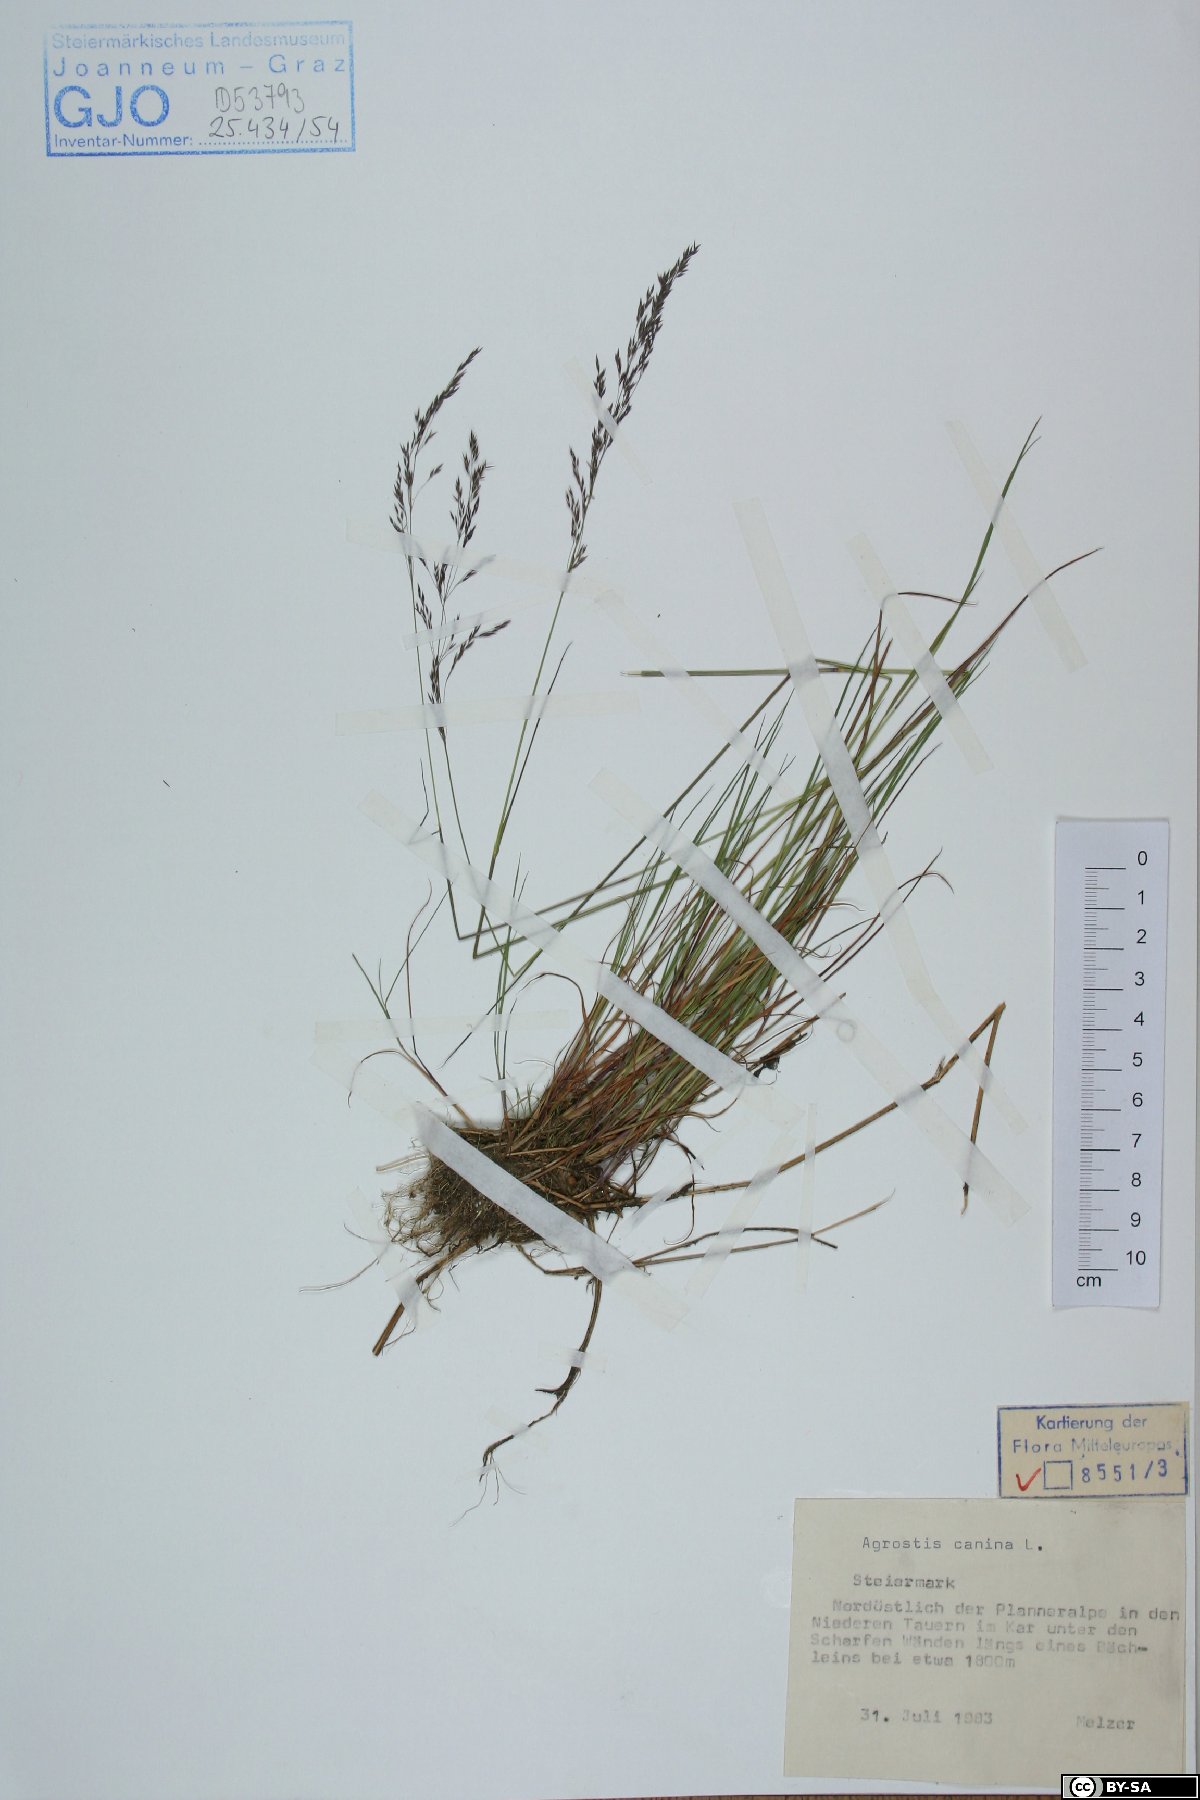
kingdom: Plantae
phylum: Tracheophyta
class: Liliopsida
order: Poales
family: Poaceae
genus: Agrostis
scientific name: Agrostis canina
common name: Velvet bent
